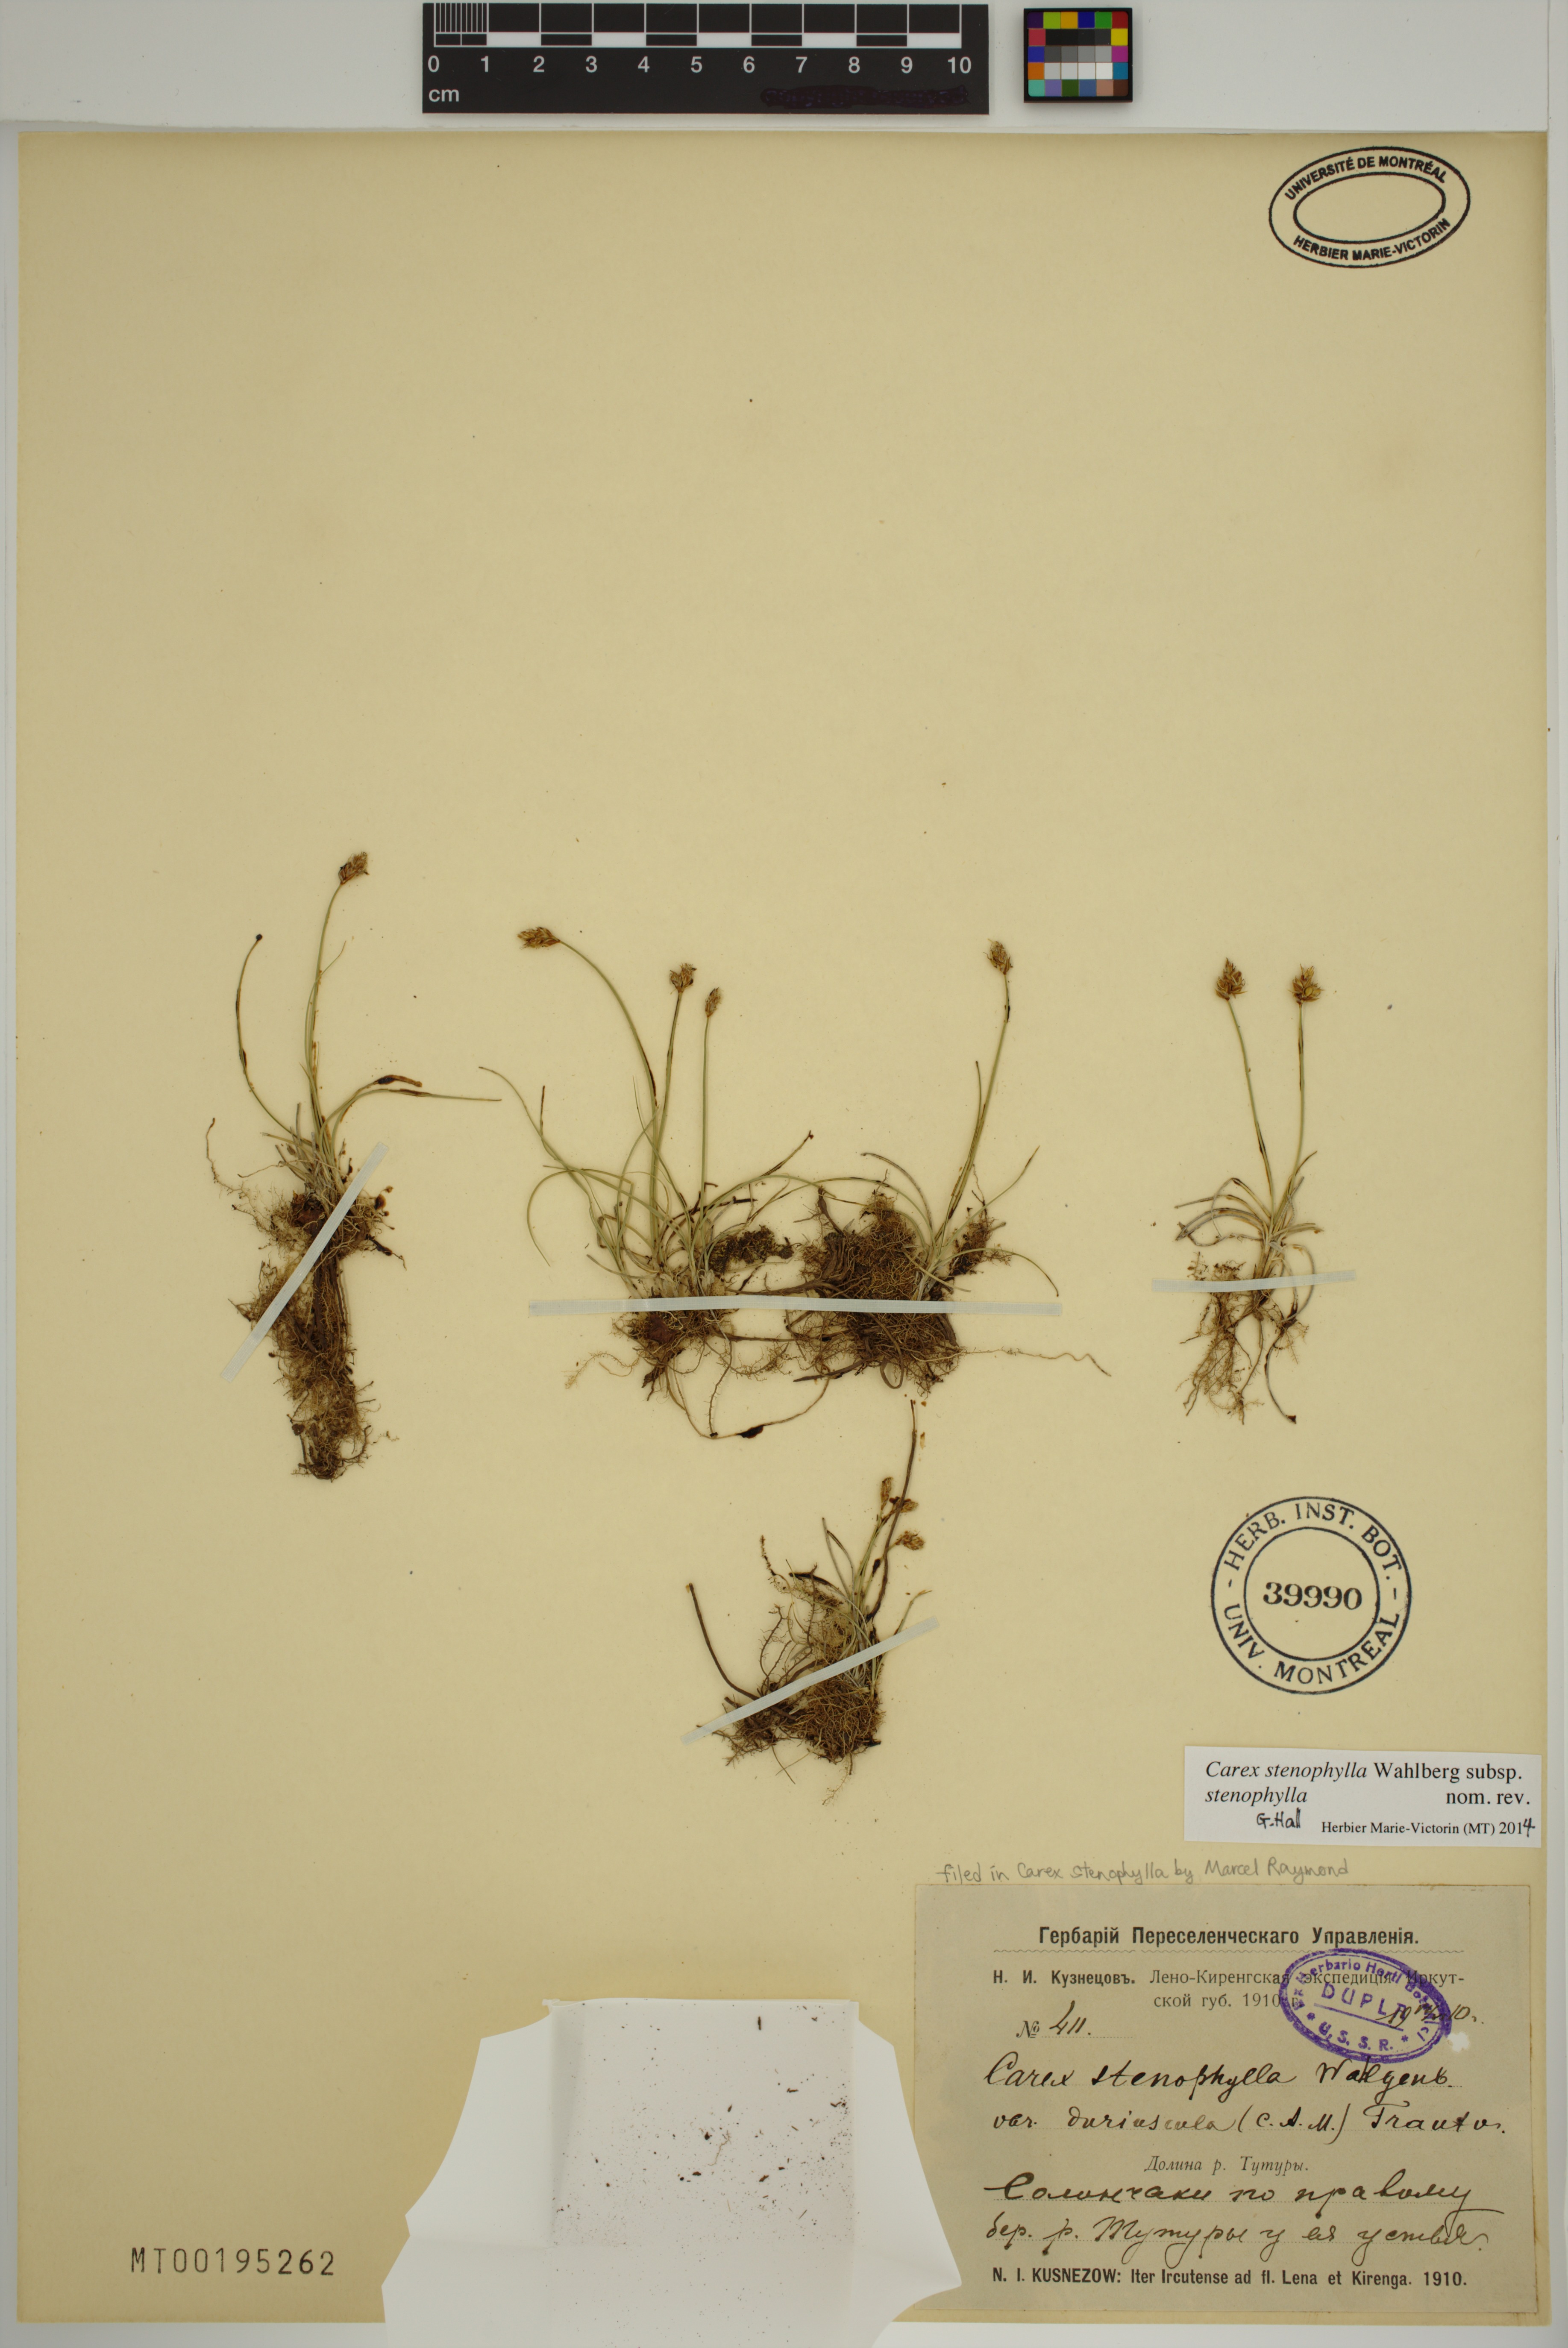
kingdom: Plantae
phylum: Tracheophyta
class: Liliopsida
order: Poales
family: Cyperaceae
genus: Carex
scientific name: Carex stenophylla
